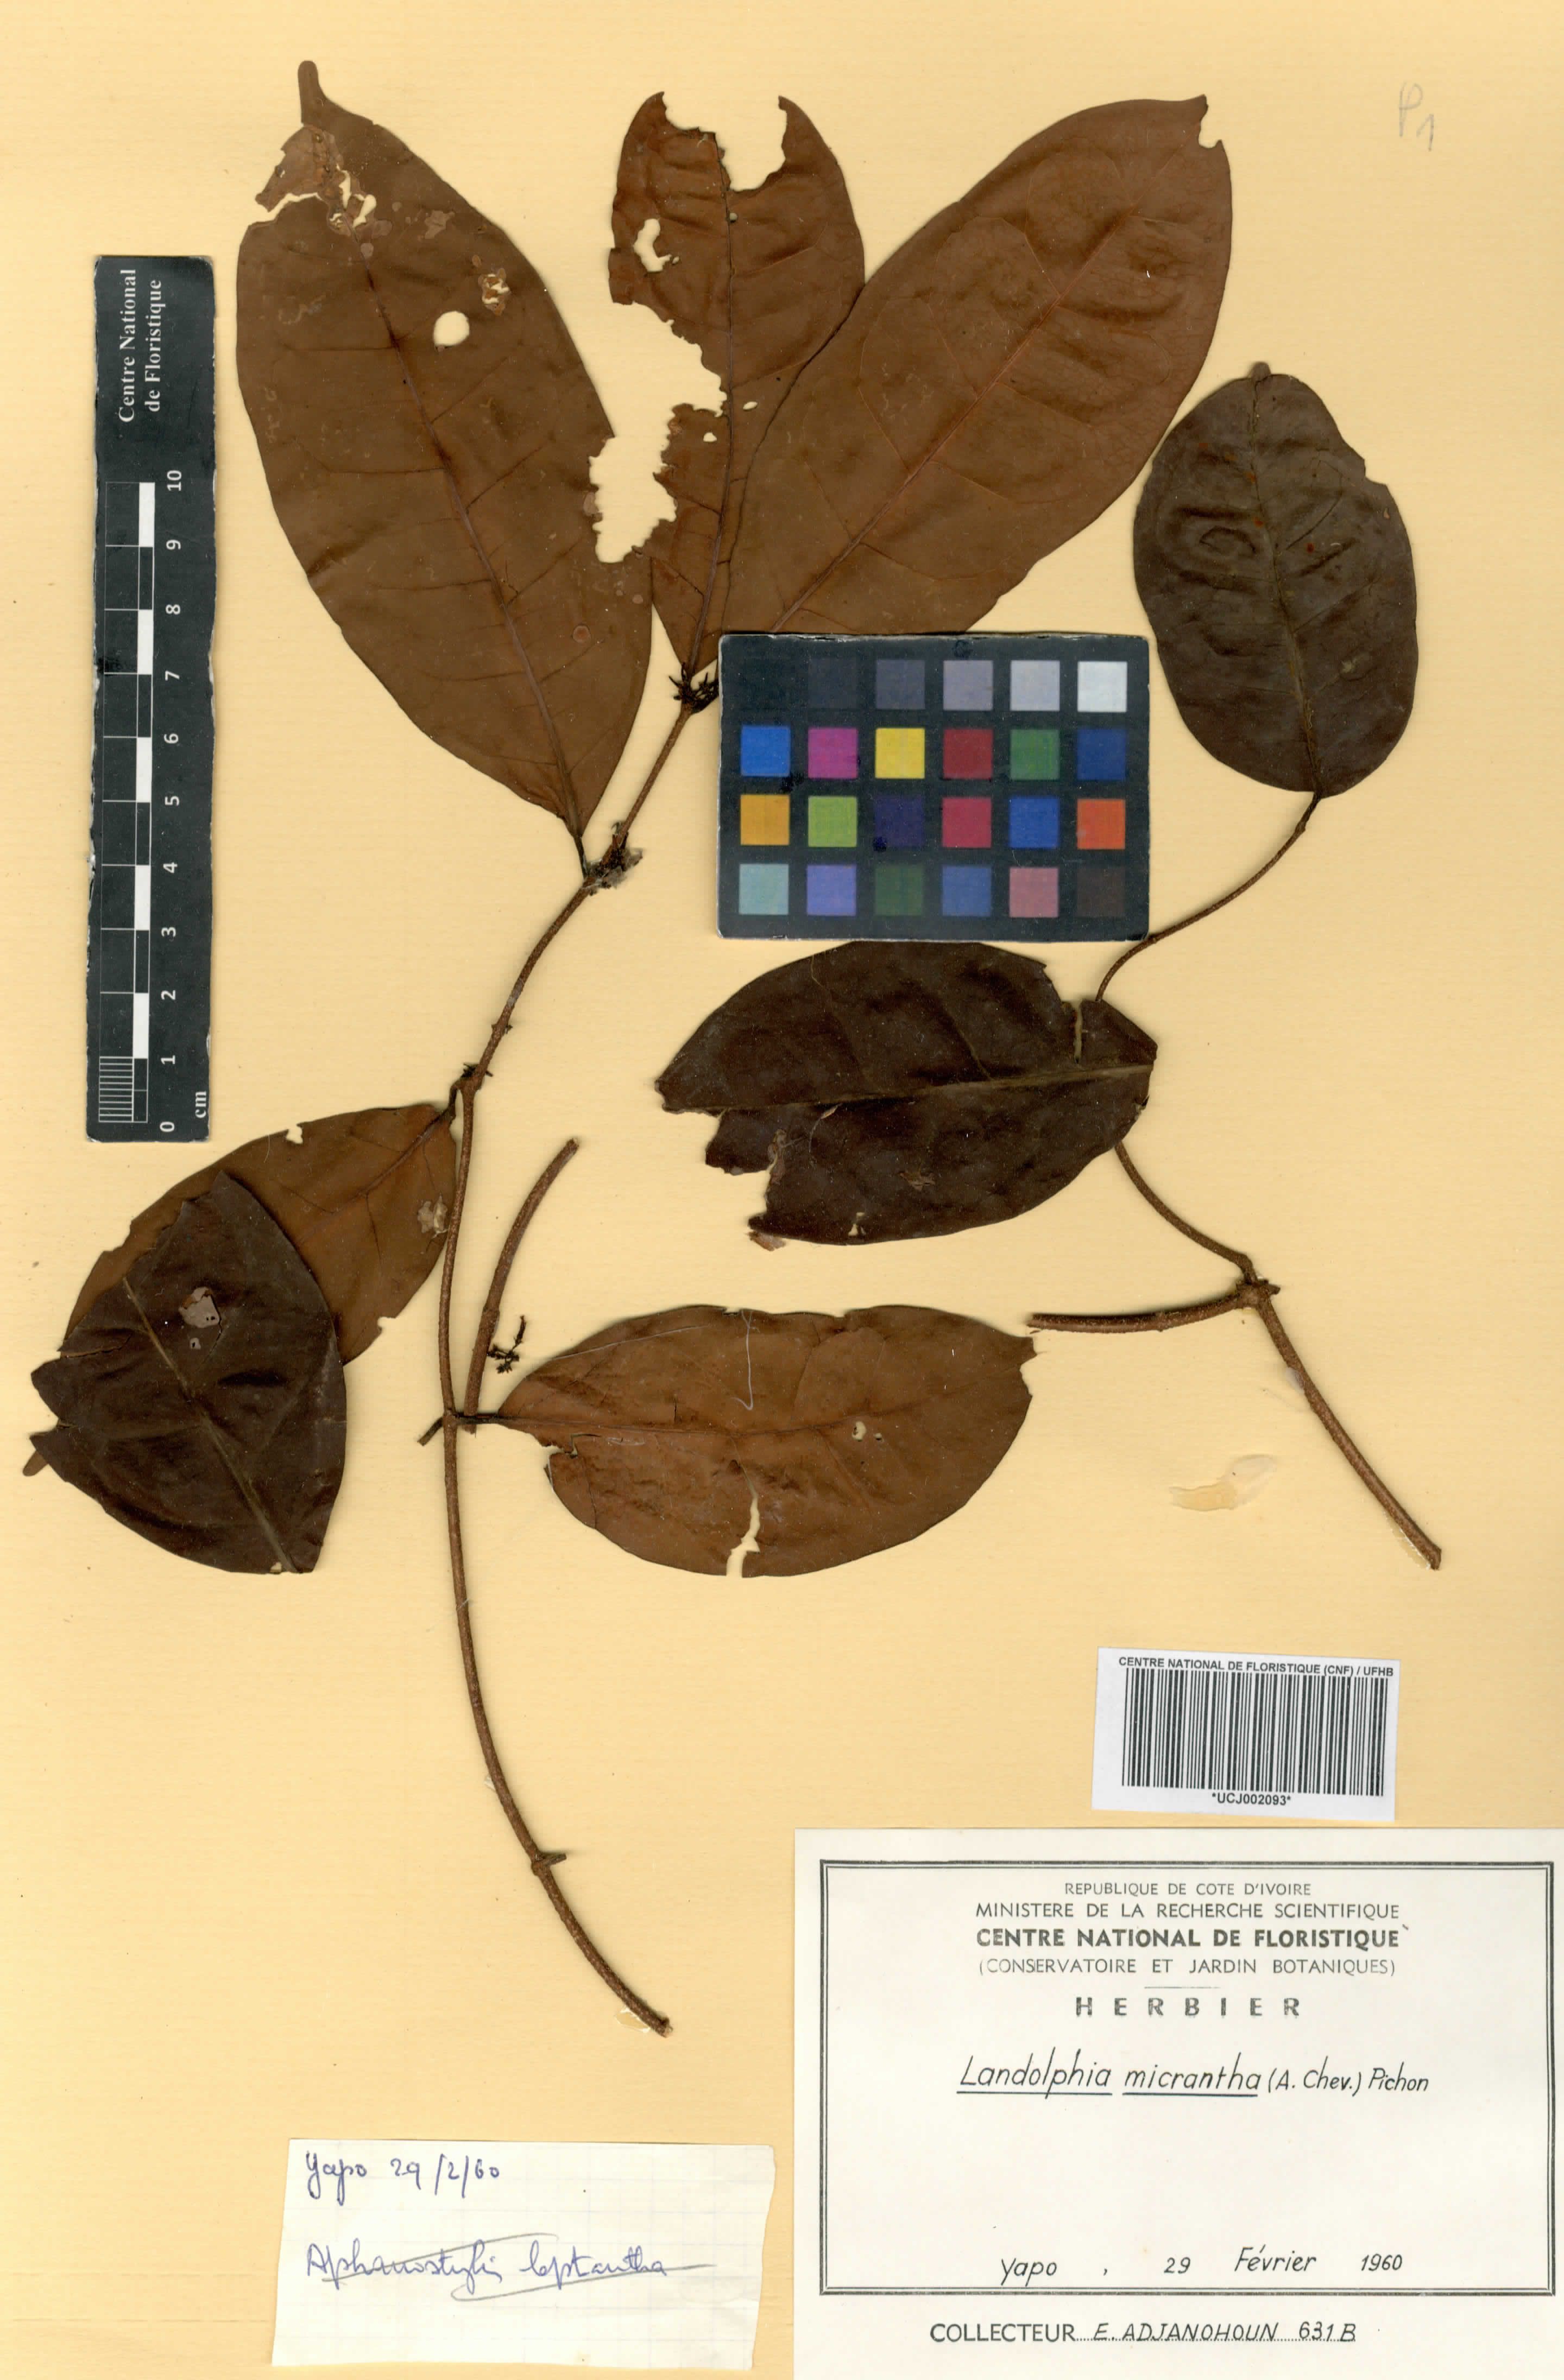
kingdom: Plantae
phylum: Tracheophyta
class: Magnoliopsida
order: Gentianales
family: Apocynaceae
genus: Landolphia
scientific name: Landolphia micrantha
